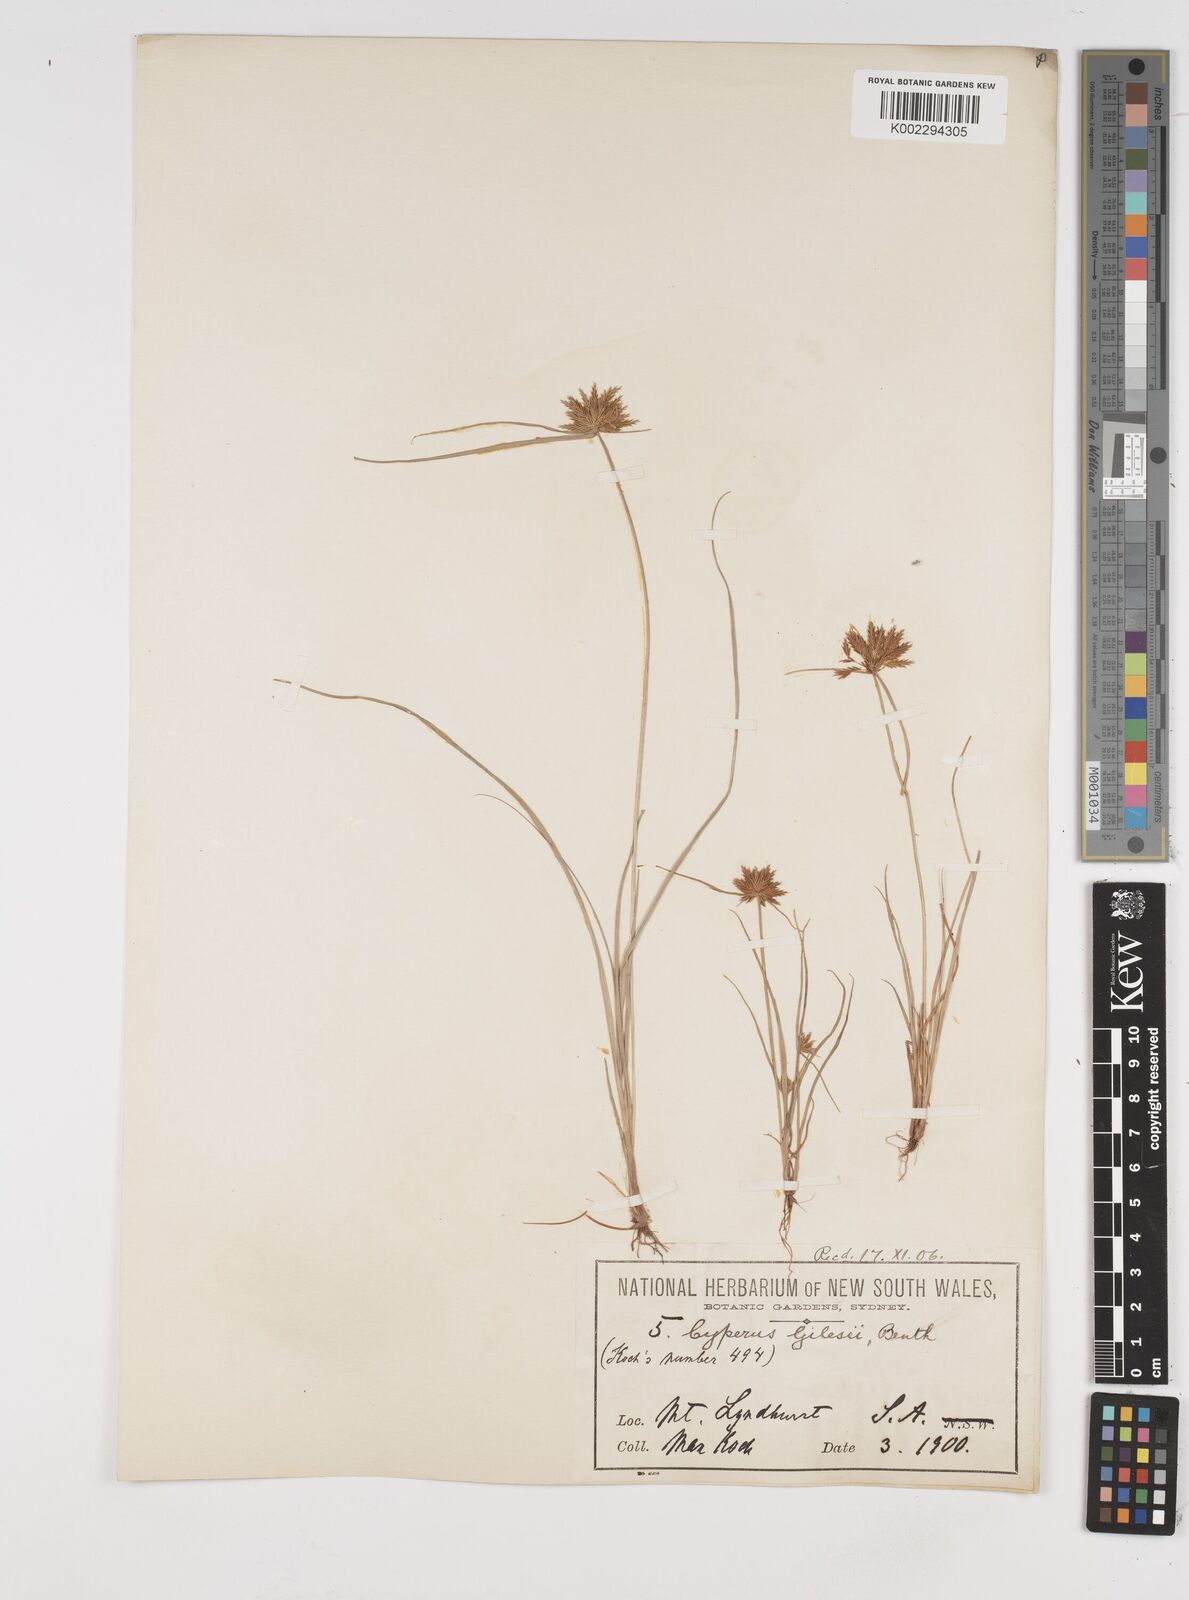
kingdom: Plantae
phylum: Tracheophyta
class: Liliopsida
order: Poales
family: Cyperaceae
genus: Cyperus
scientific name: Cyperus gilesii
